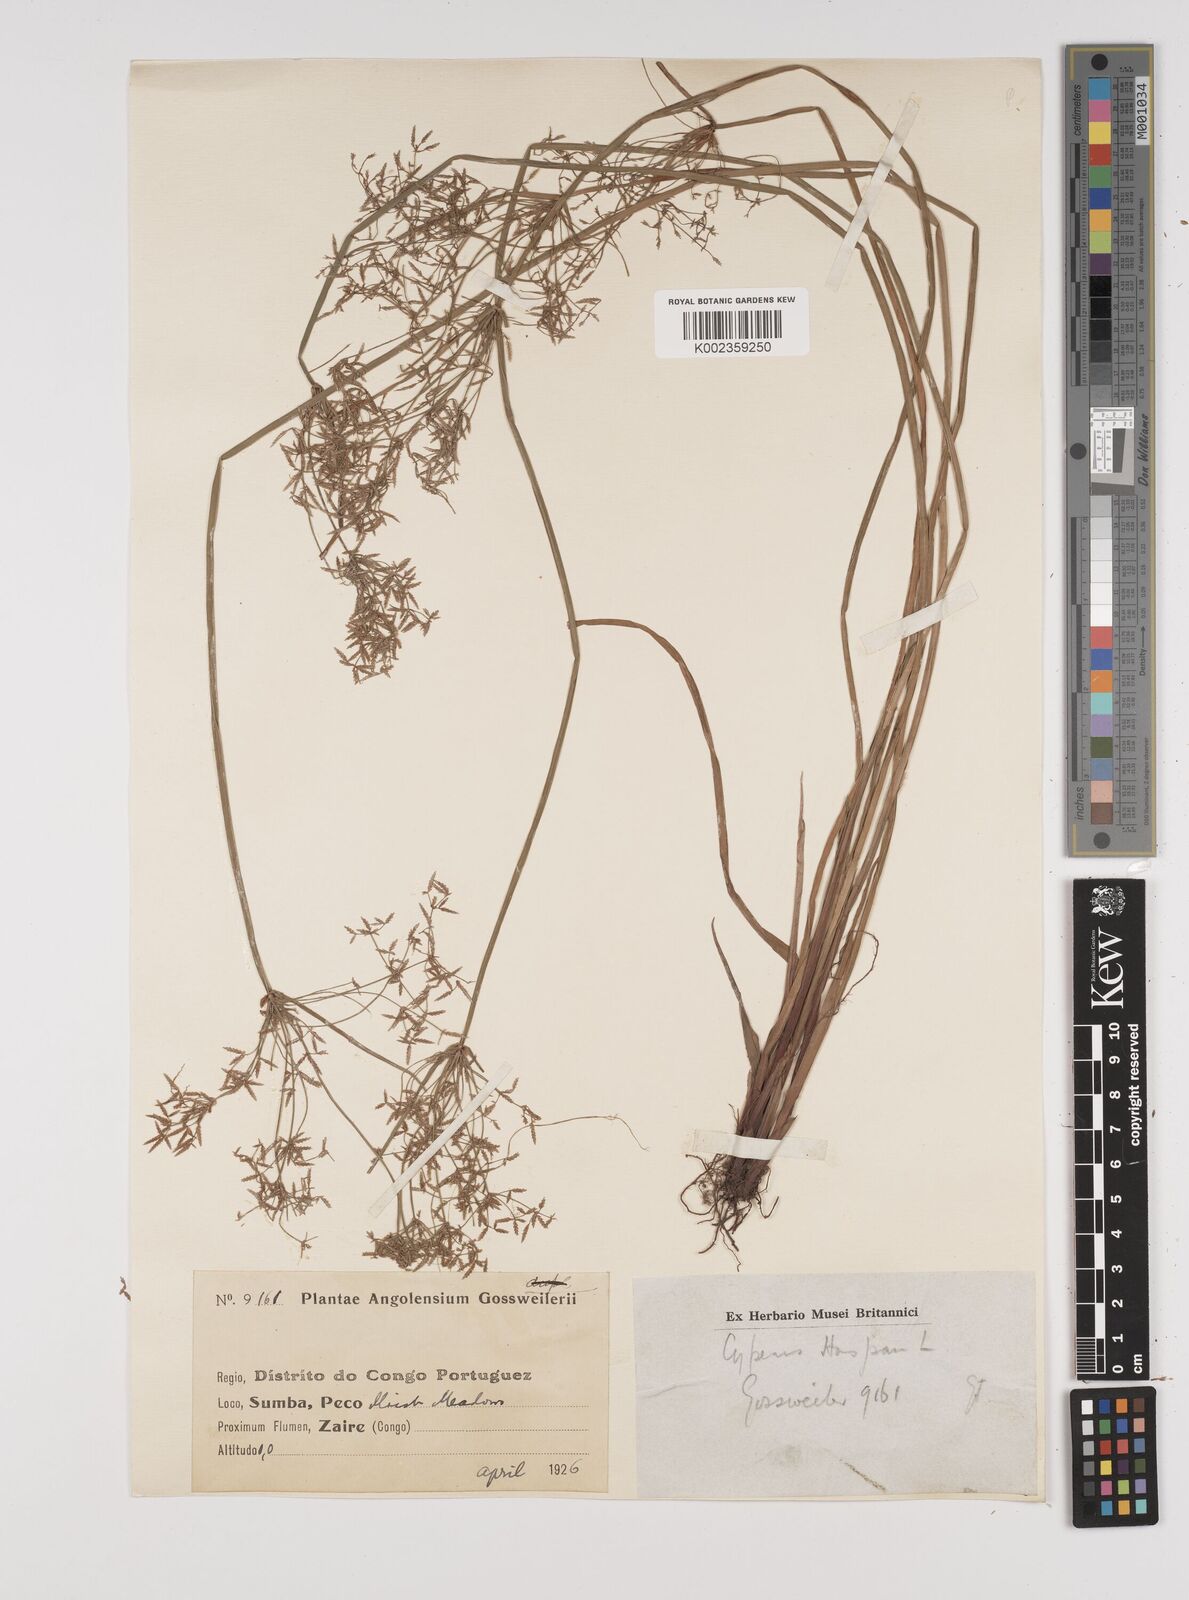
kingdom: Plantae
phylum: Tracheophyta
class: Liliopsida
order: Poales
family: Cyperaceae
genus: Cyperus
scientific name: Cyperus haspan
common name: Haspan flatsedge
